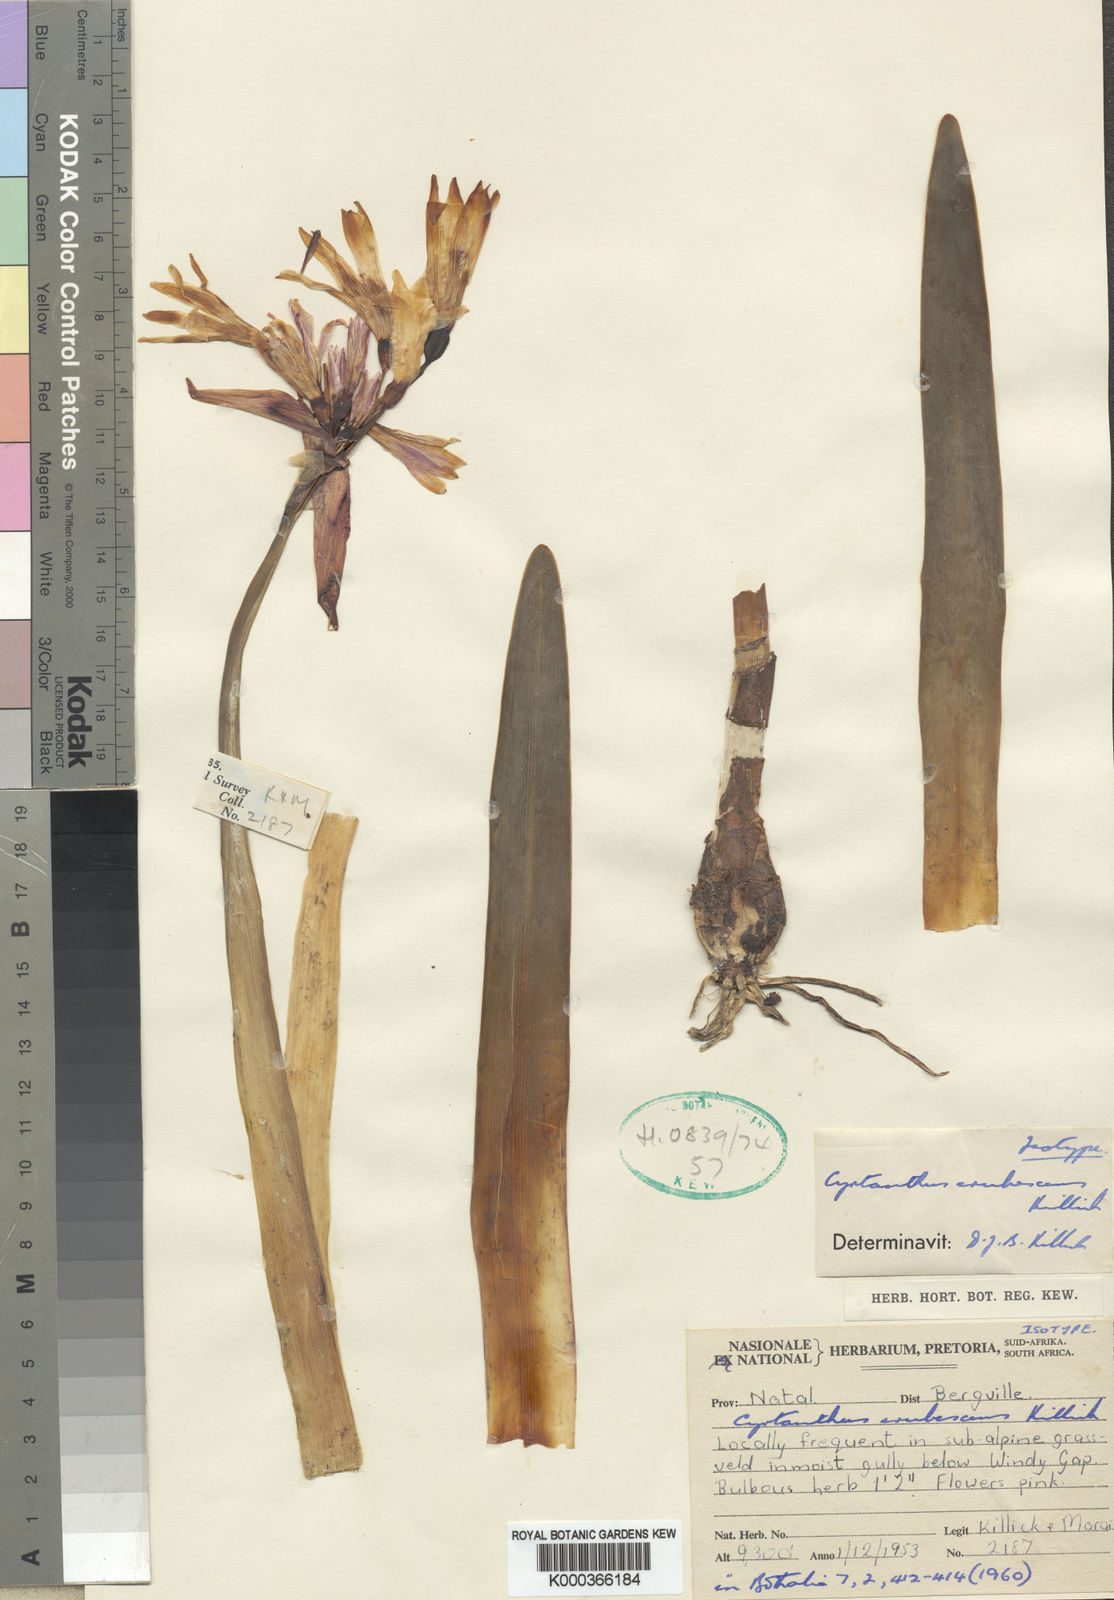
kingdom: Plantae
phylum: Tracheophyta
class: Liliopsida
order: Asparagales
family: Amaryllidaceae
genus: Cyrtanthus
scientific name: Cyrtanthus erubescens
